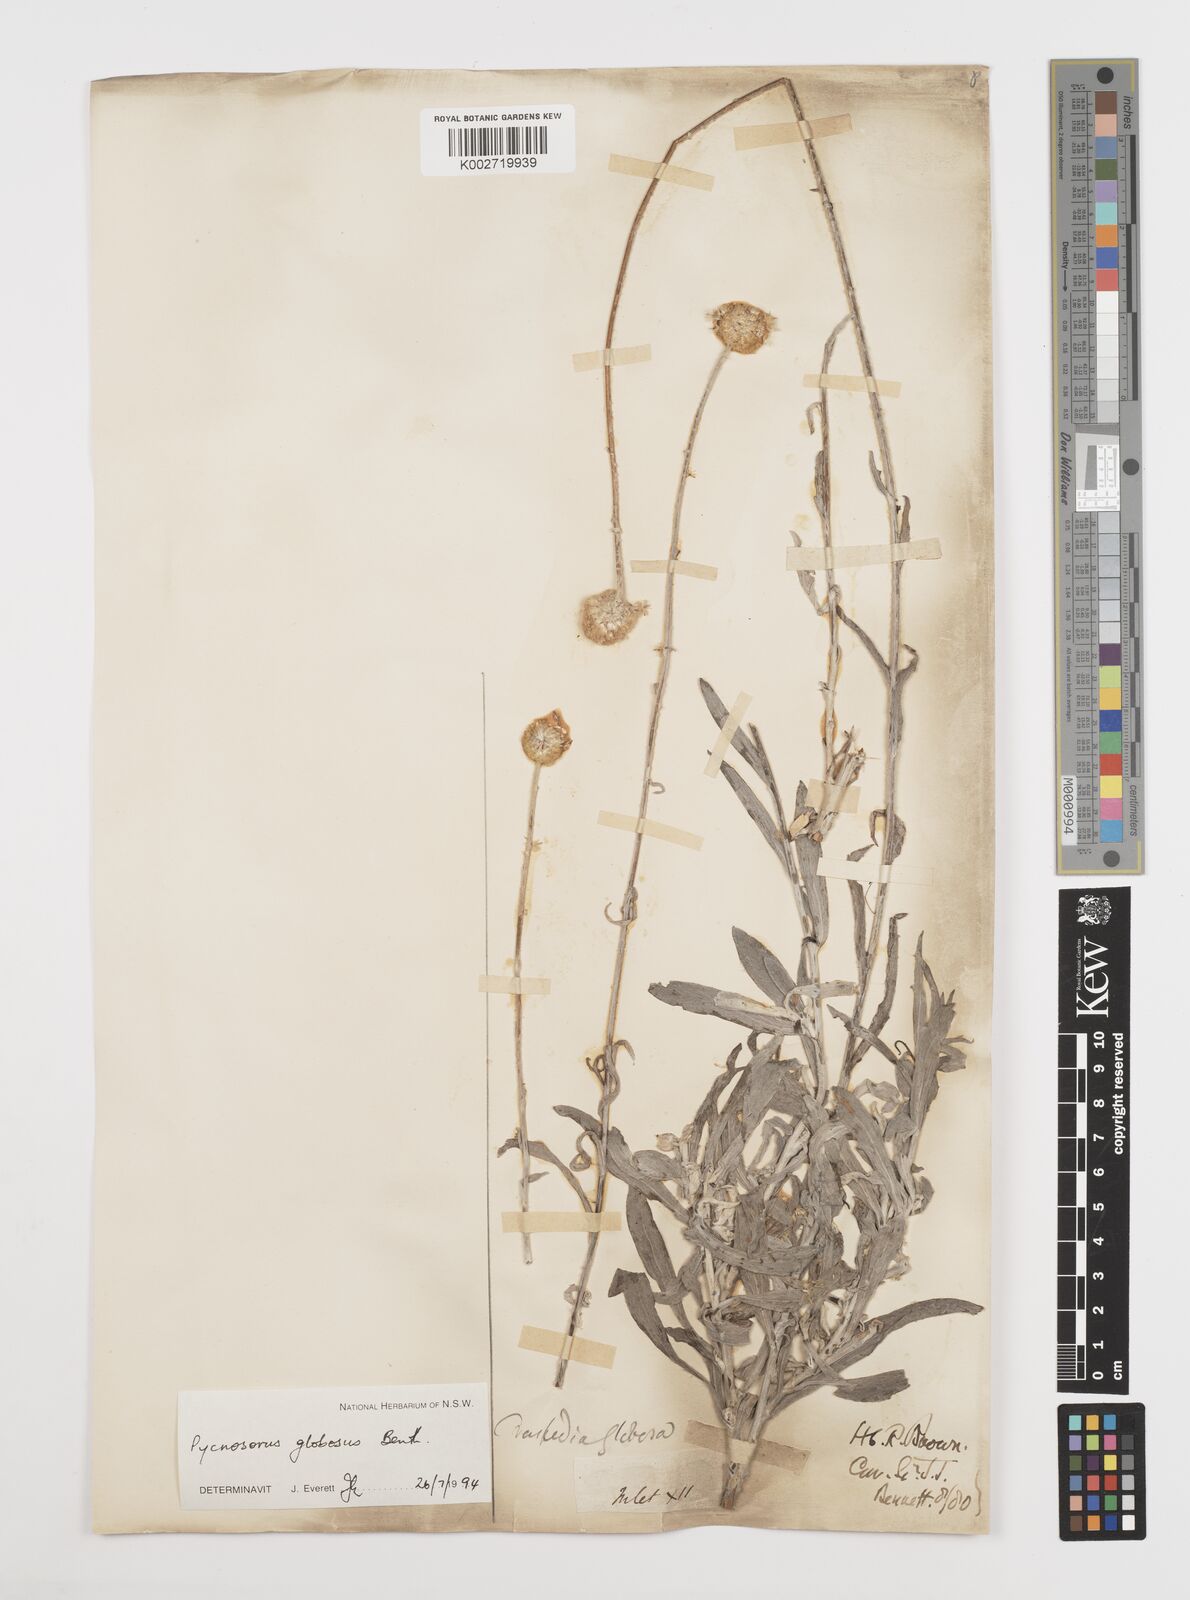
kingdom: Plantae
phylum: Tracheophyta
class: Magnoliopsida
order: Asterales
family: Asteraceae
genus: Pycnosorus
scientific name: Pycnosorus globosus
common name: Drumsticks
